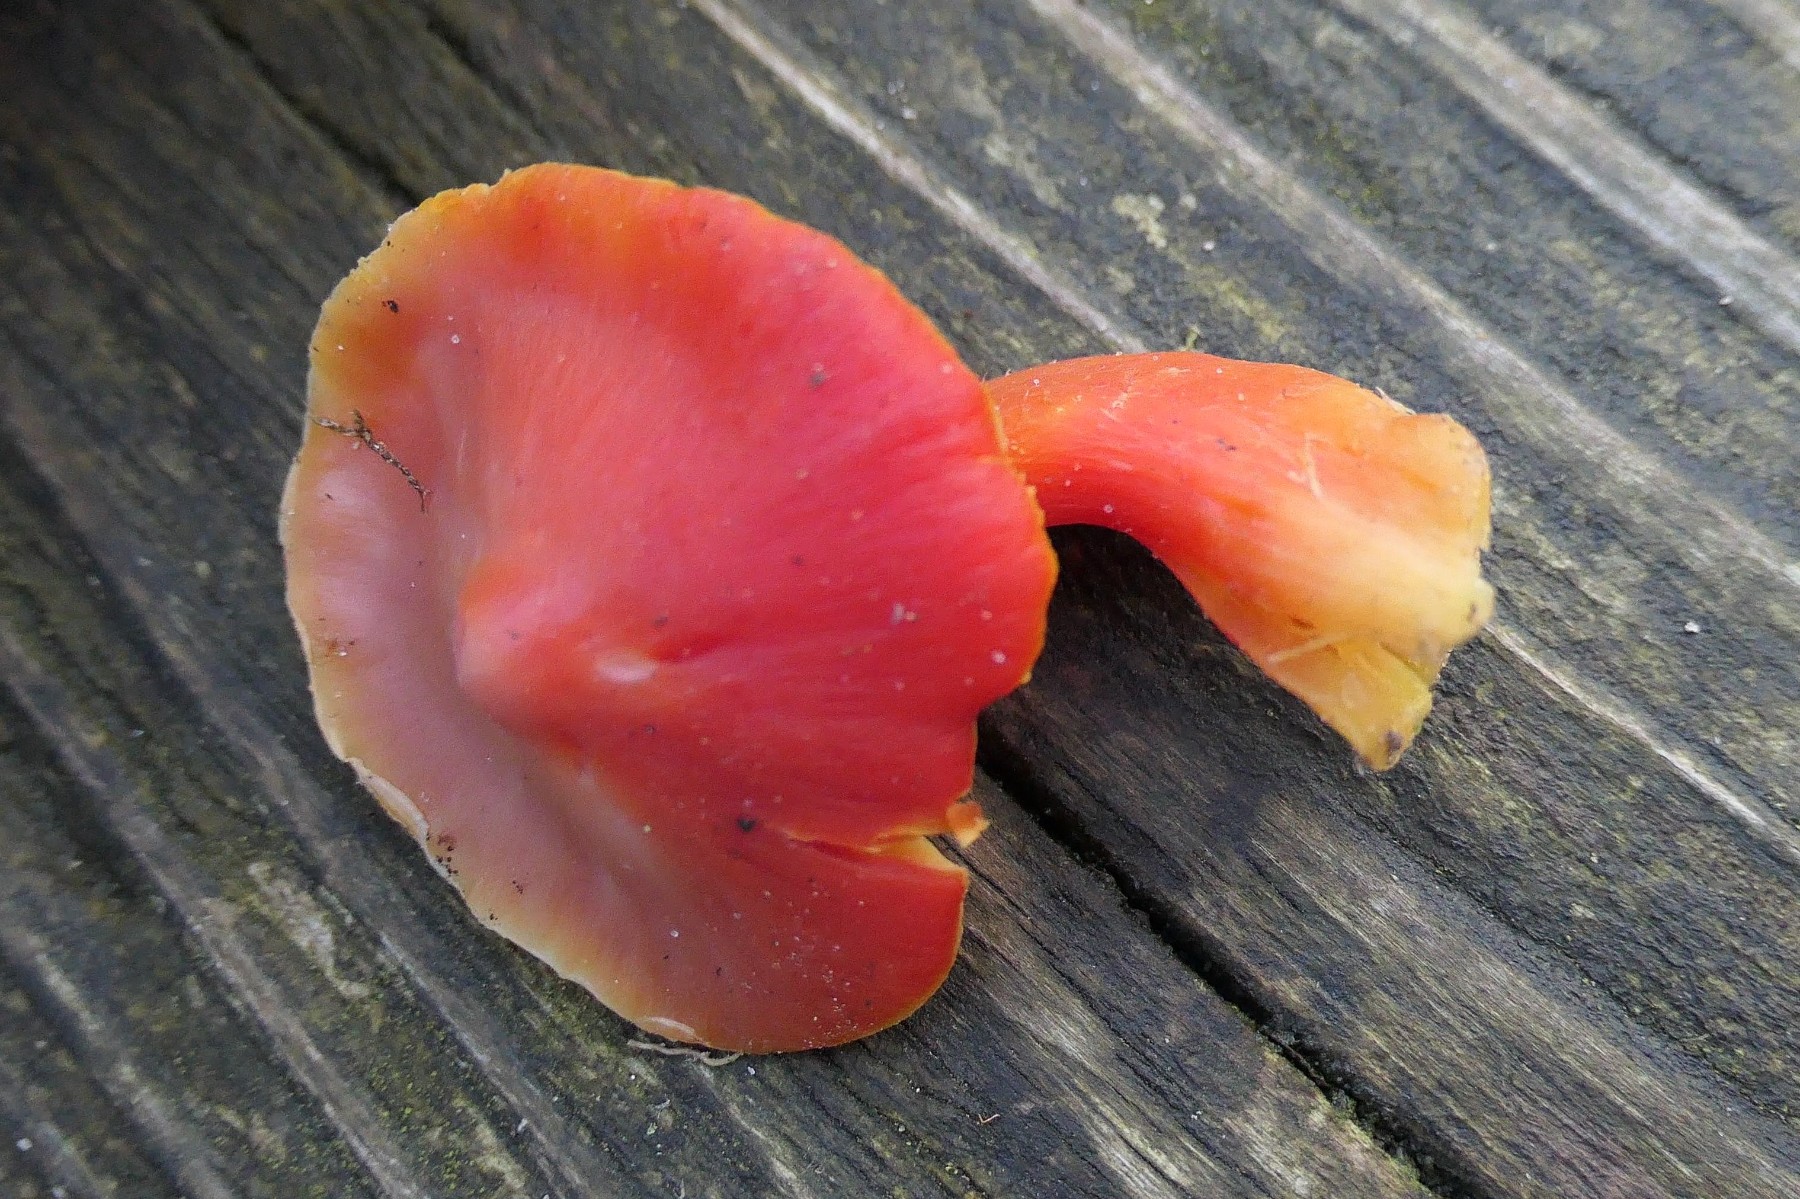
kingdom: Fungi
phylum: Basidiomycota
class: Agaricomycetes
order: Agaricales
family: Hygrophoraceae
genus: Hygrocybe
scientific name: Hygrocybe splendidissima
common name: knaldrød vokshat
